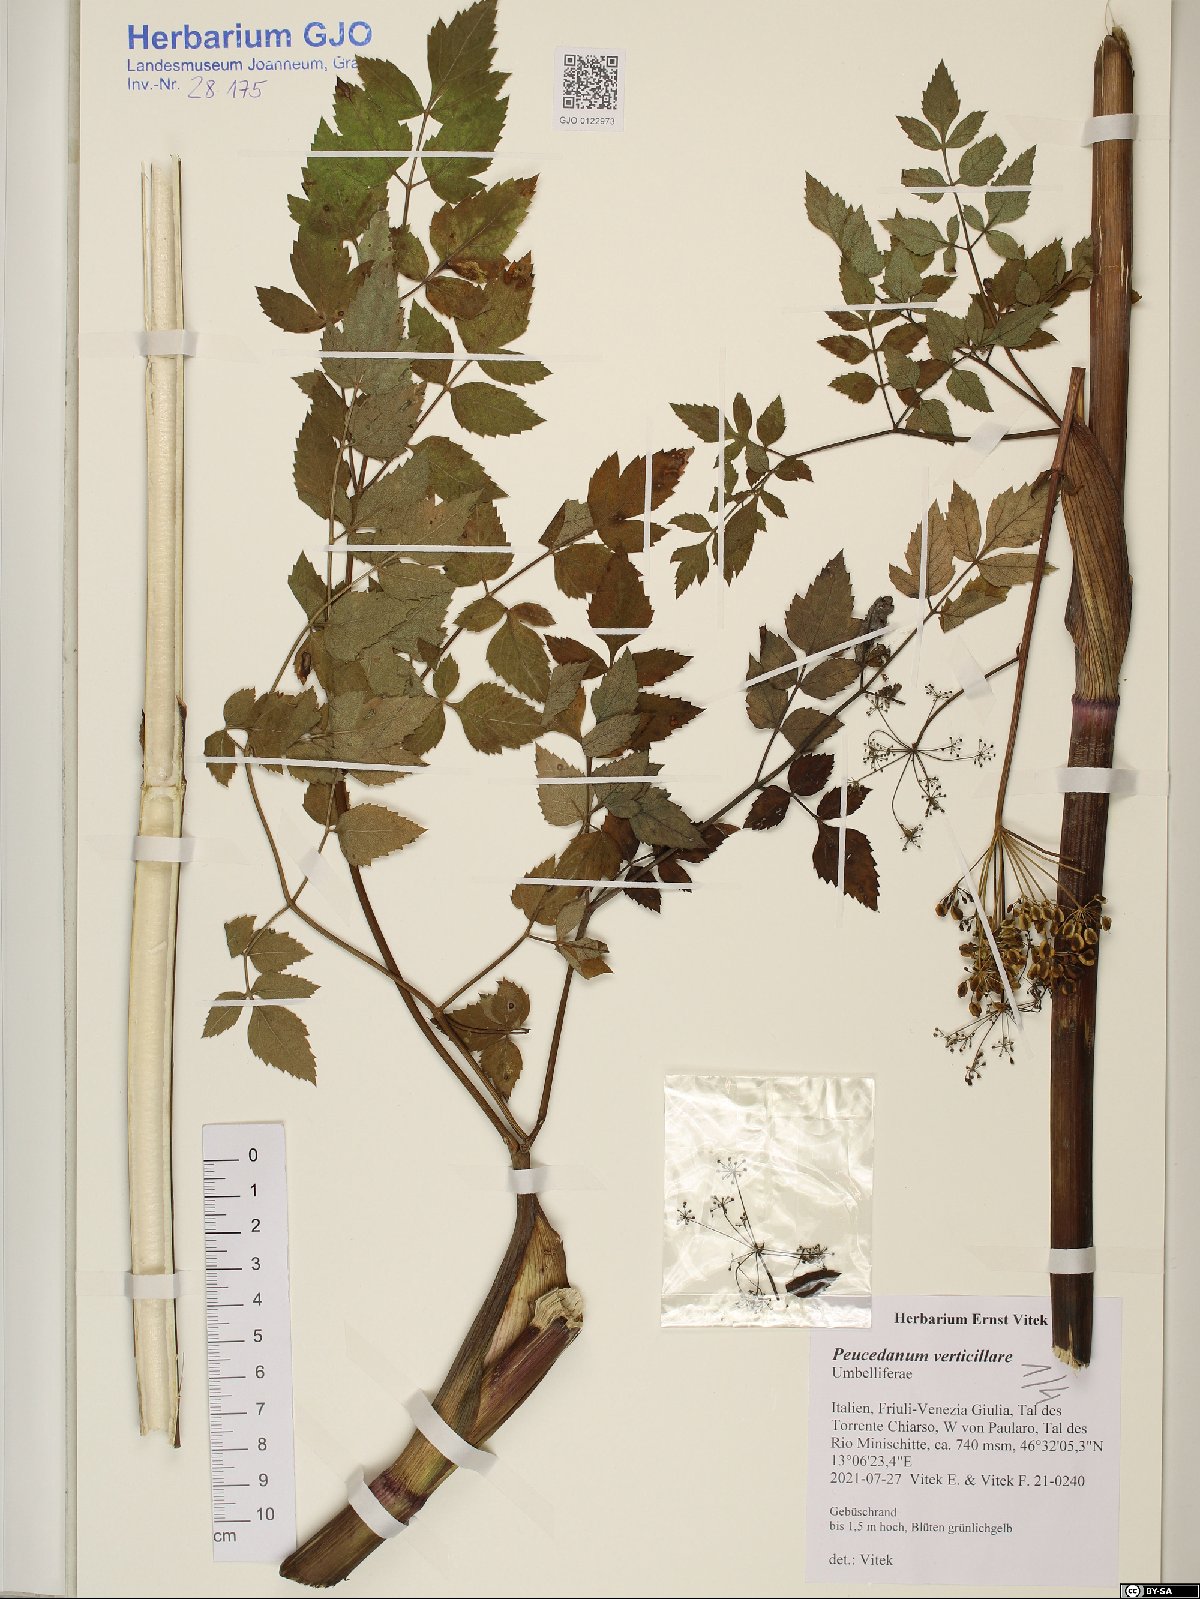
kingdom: Plantae
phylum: Tracheophyta
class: Magnoliopsida
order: Apiales
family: Apiaceae
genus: Tommasinia
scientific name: Tommasinia altissima
